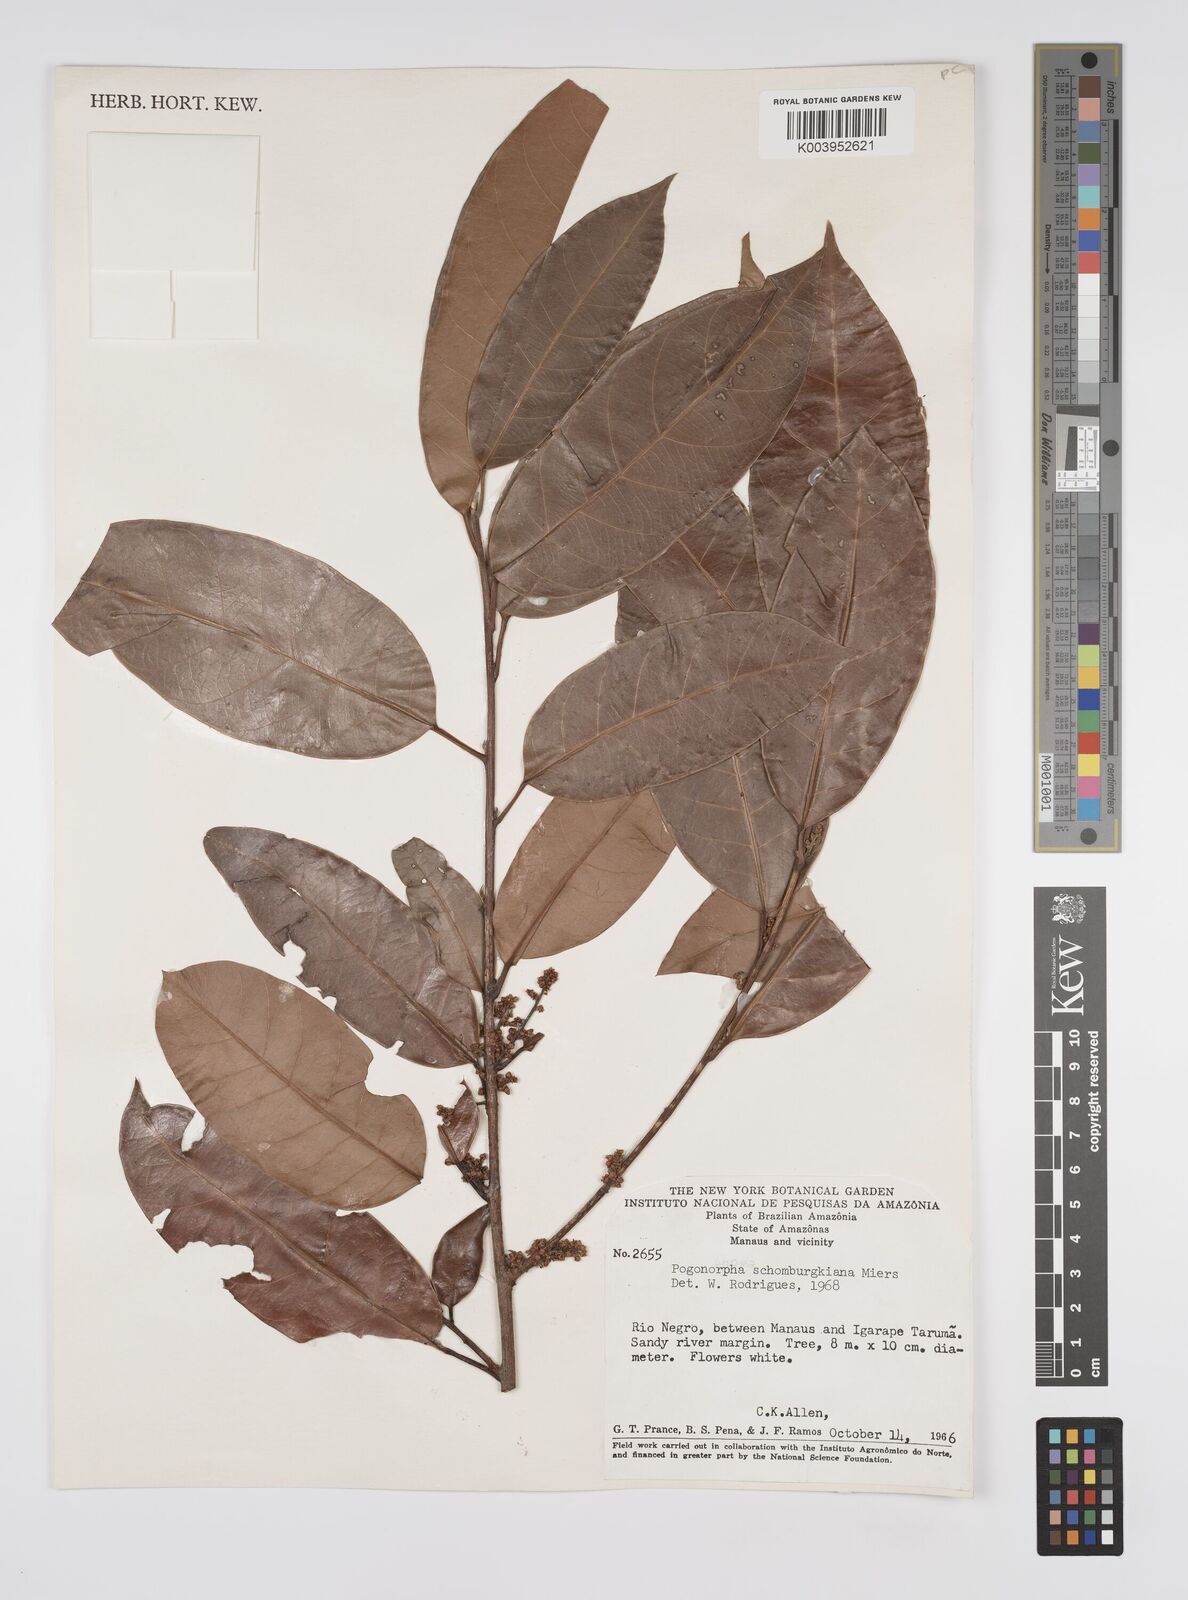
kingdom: Plantae
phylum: Tracheophyta
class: Magnoliopsida
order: Malpighiales
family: Peraceae
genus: Pogonophora
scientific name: Pogonophora schomburgkiana
